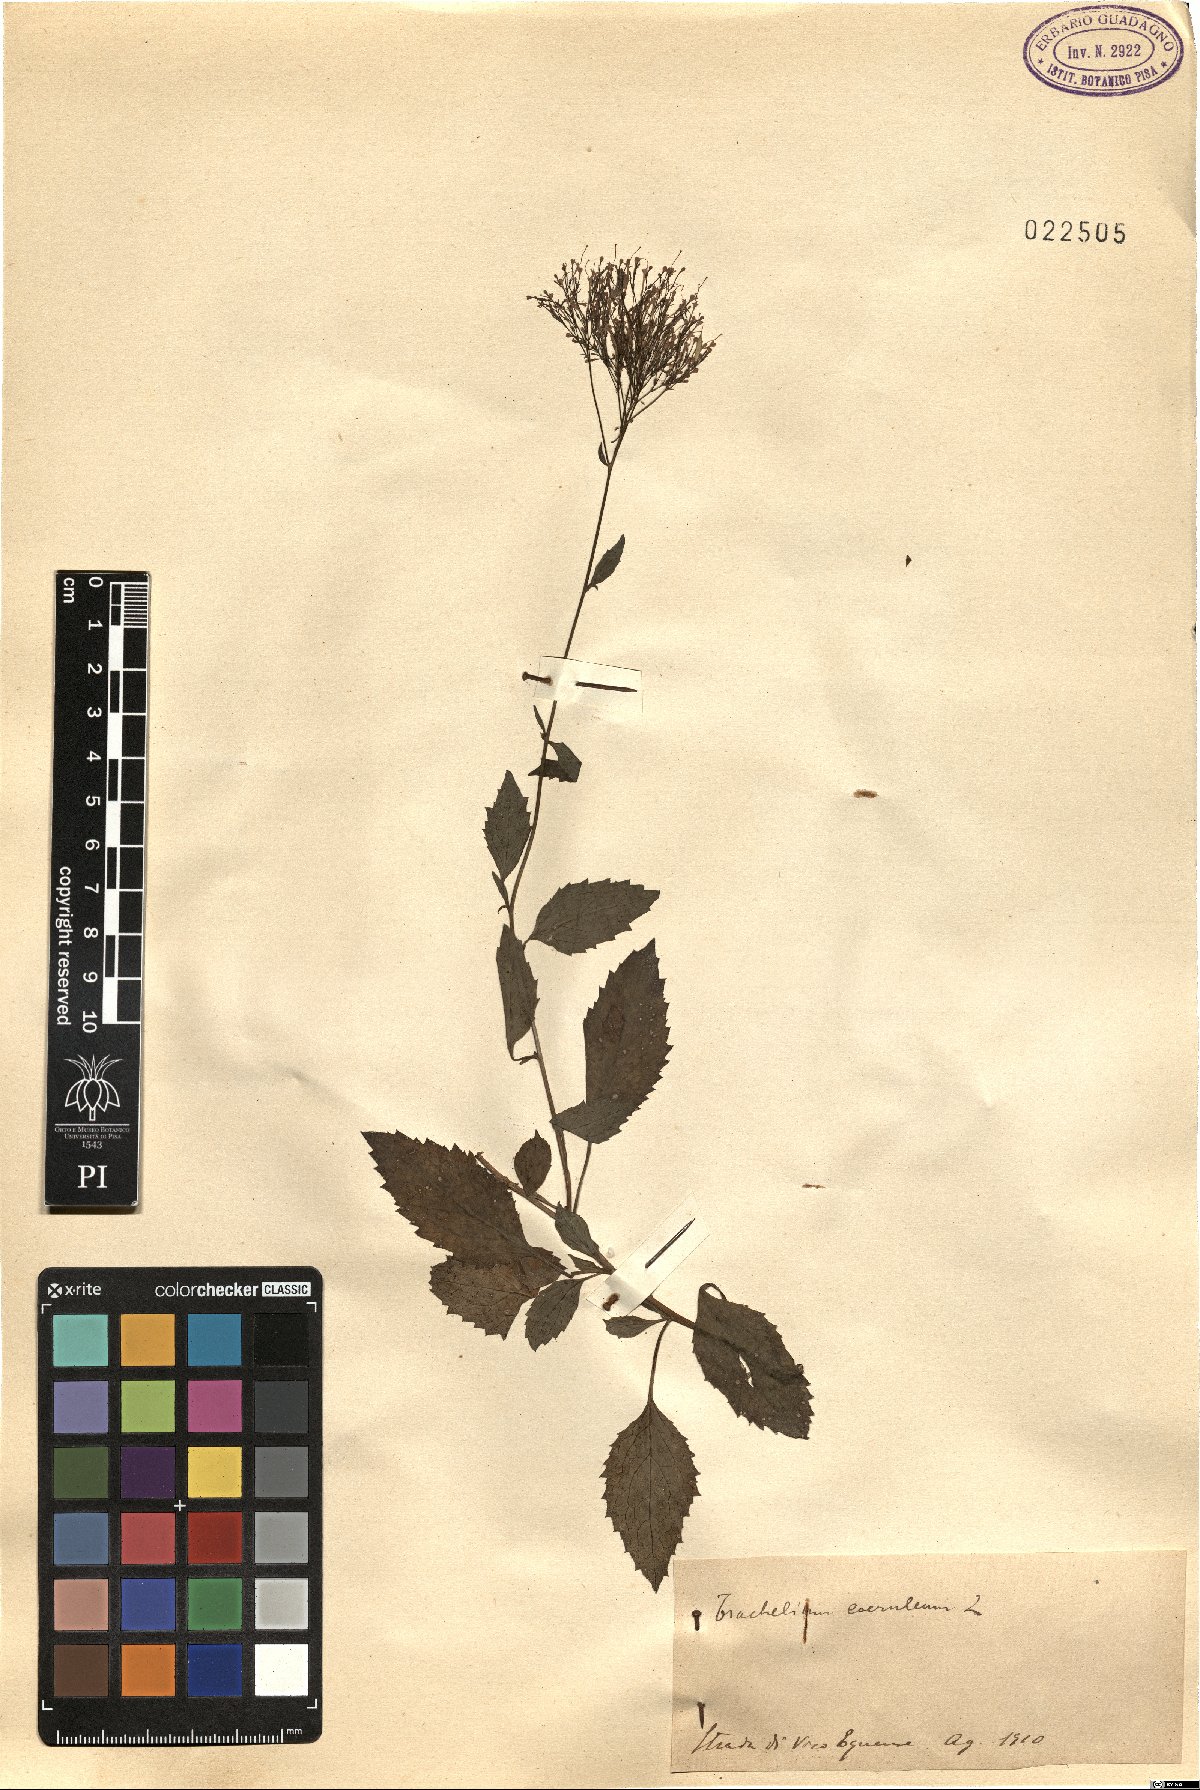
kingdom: Plantae
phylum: Tracheophyta
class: Magnoliopsida
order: Asterales
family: Campanulaceae
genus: Trachelium
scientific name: Trachelium caeruleum
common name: Throatwort
